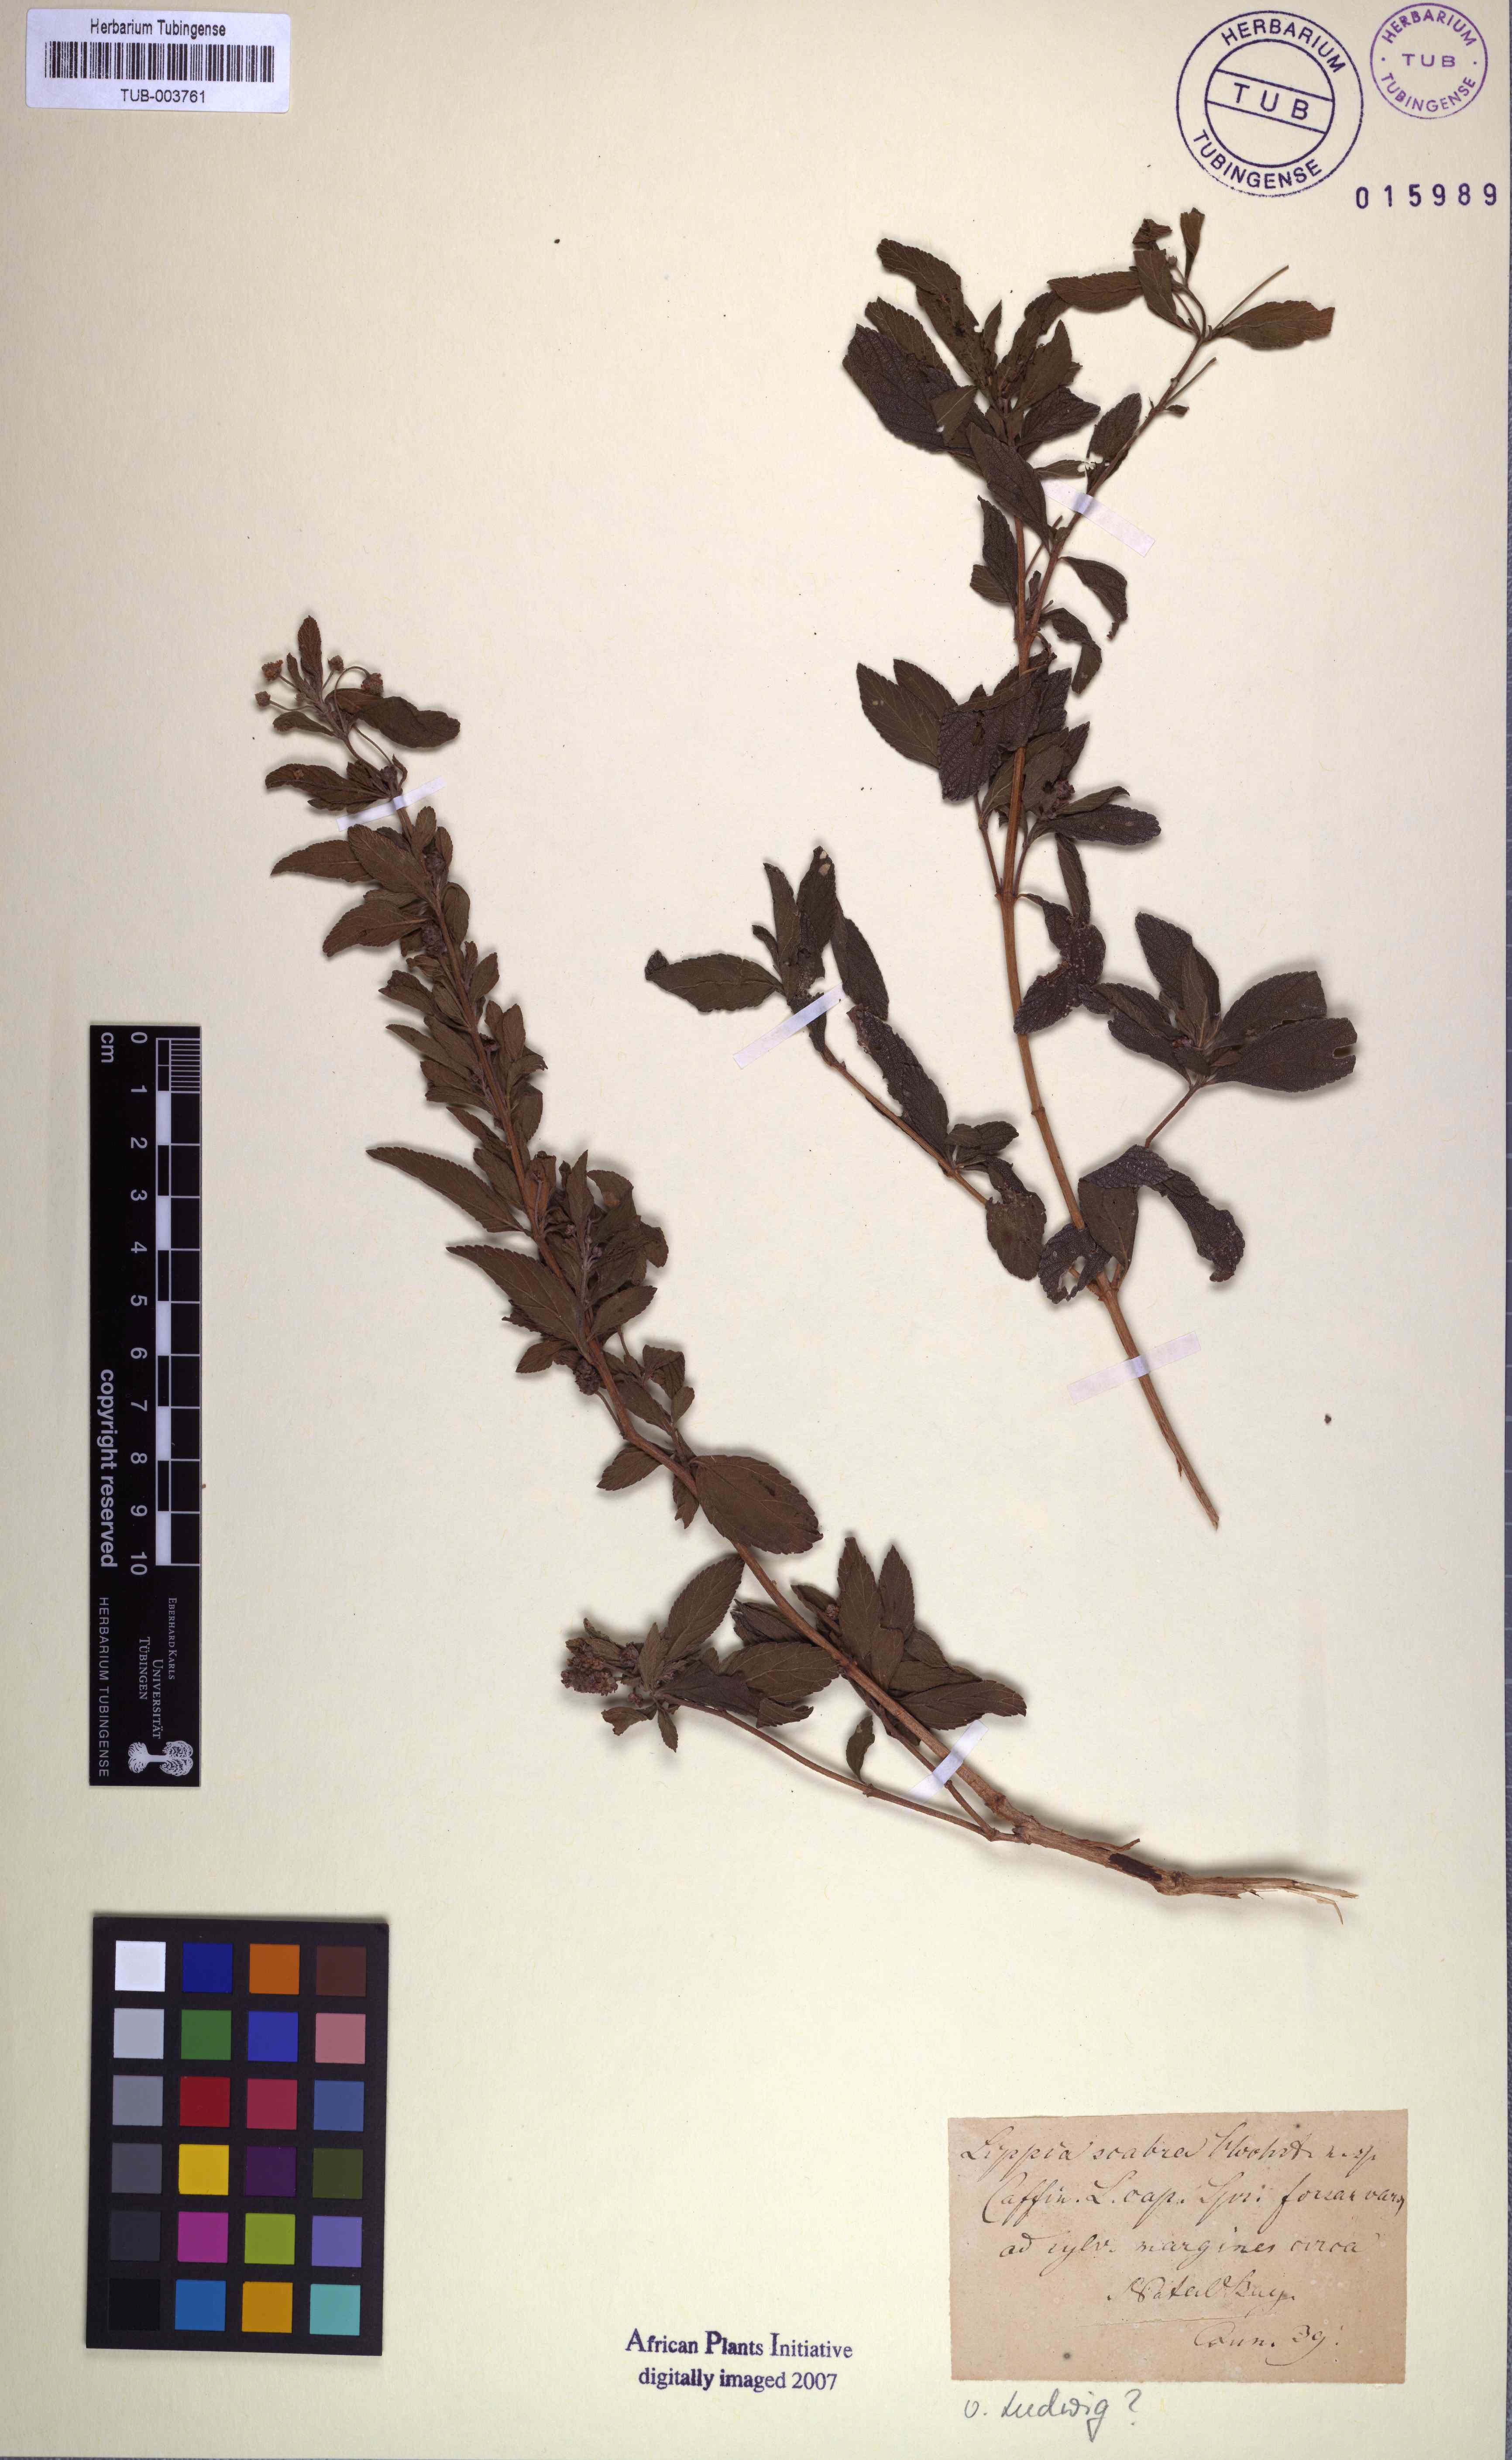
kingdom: Plantae
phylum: Tracheophyta
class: Magnoliopsida
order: Lamiales
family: Verbenaceae
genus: Lippia
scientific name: Lippia javanica
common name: Lemonbush
